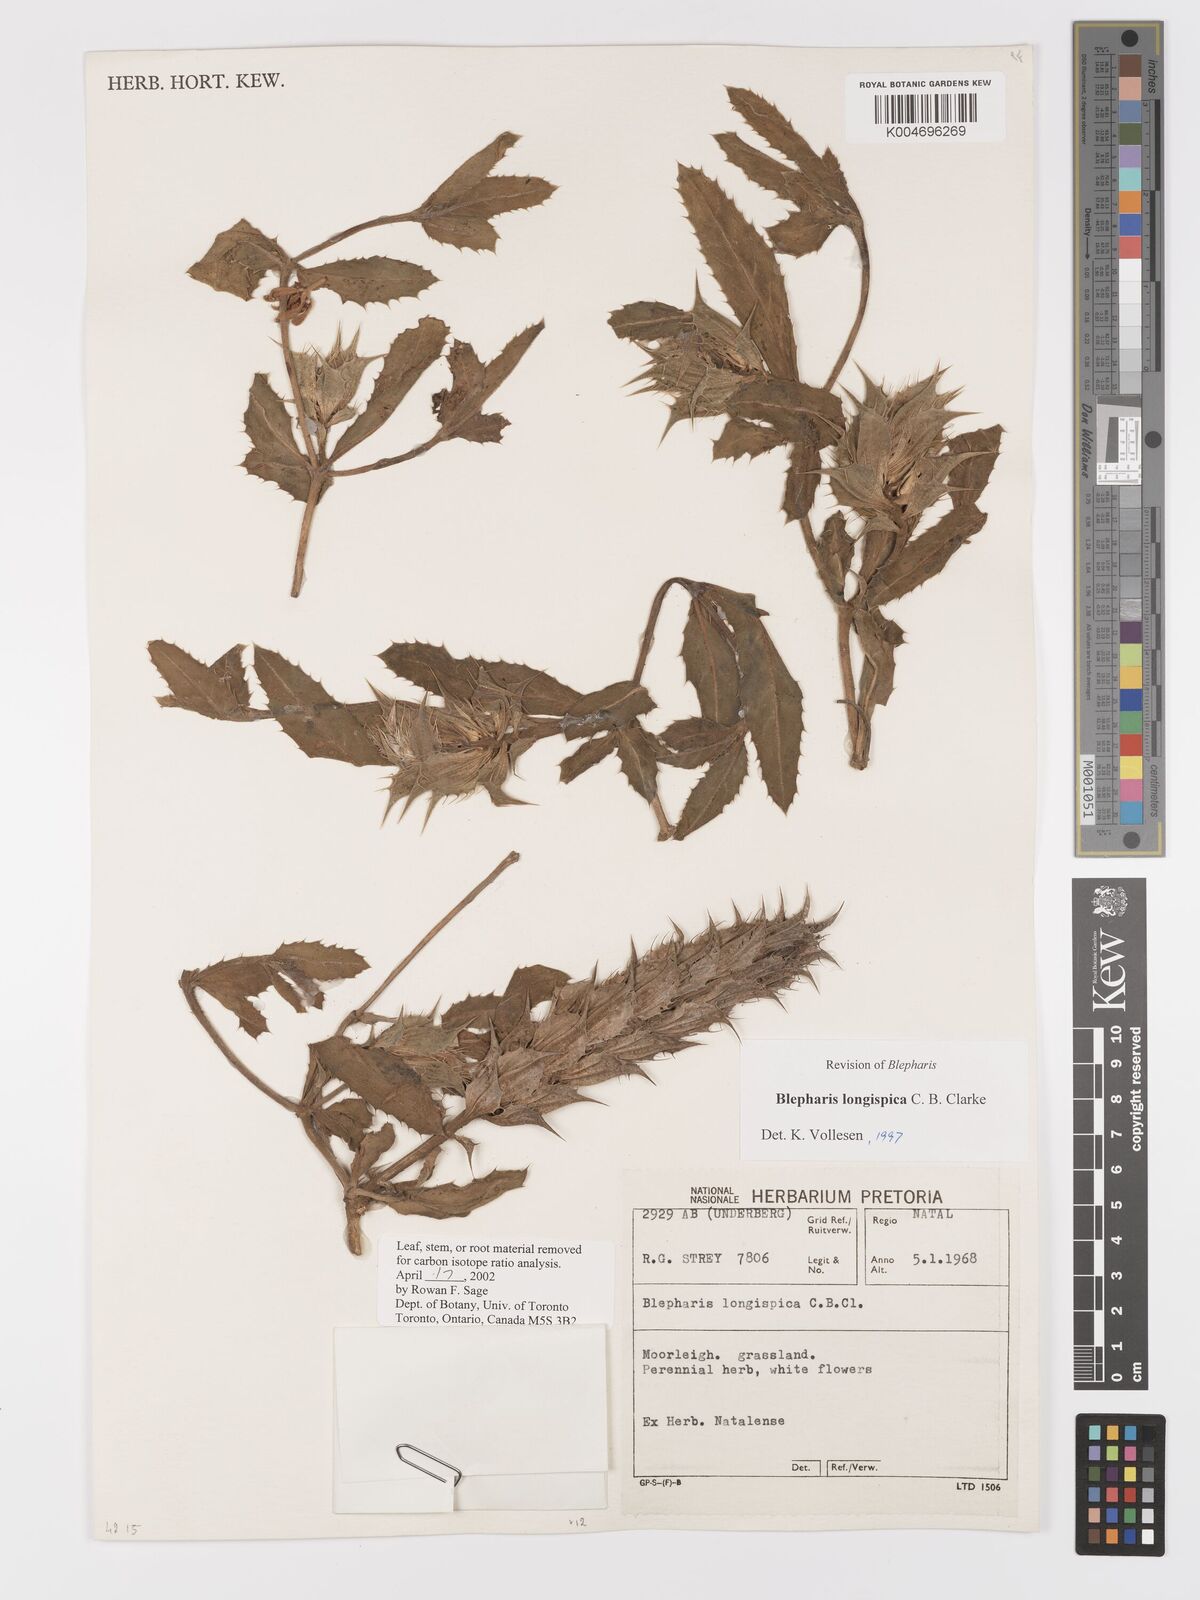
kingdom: Plantae
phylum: Tracheophyta
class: Magnoliopsida
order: Lamiales
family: Acanthaceae
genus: Blepharis
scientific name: Blepharis longispica
